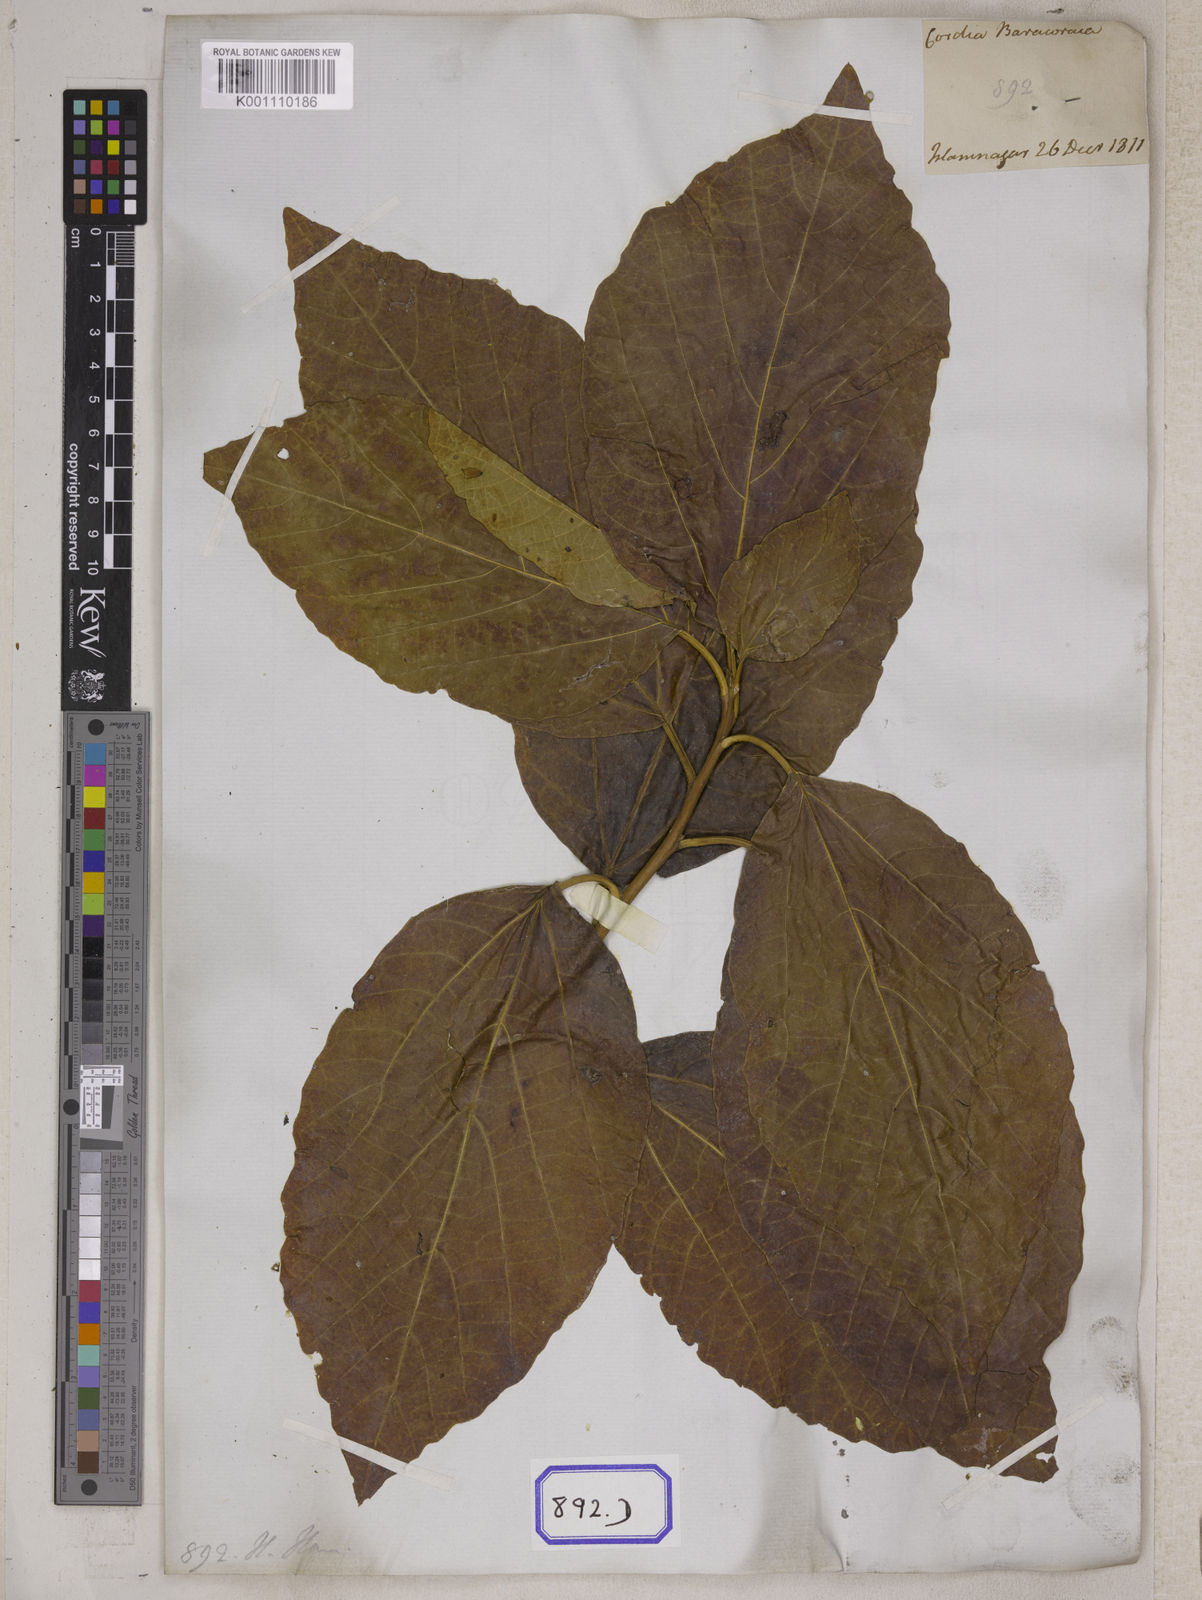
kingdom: Plantae
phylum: Tracheophyta
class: Magnoliopsida
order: Boraginales
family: Cordiaceae
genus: Cordia
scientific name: Cordia
